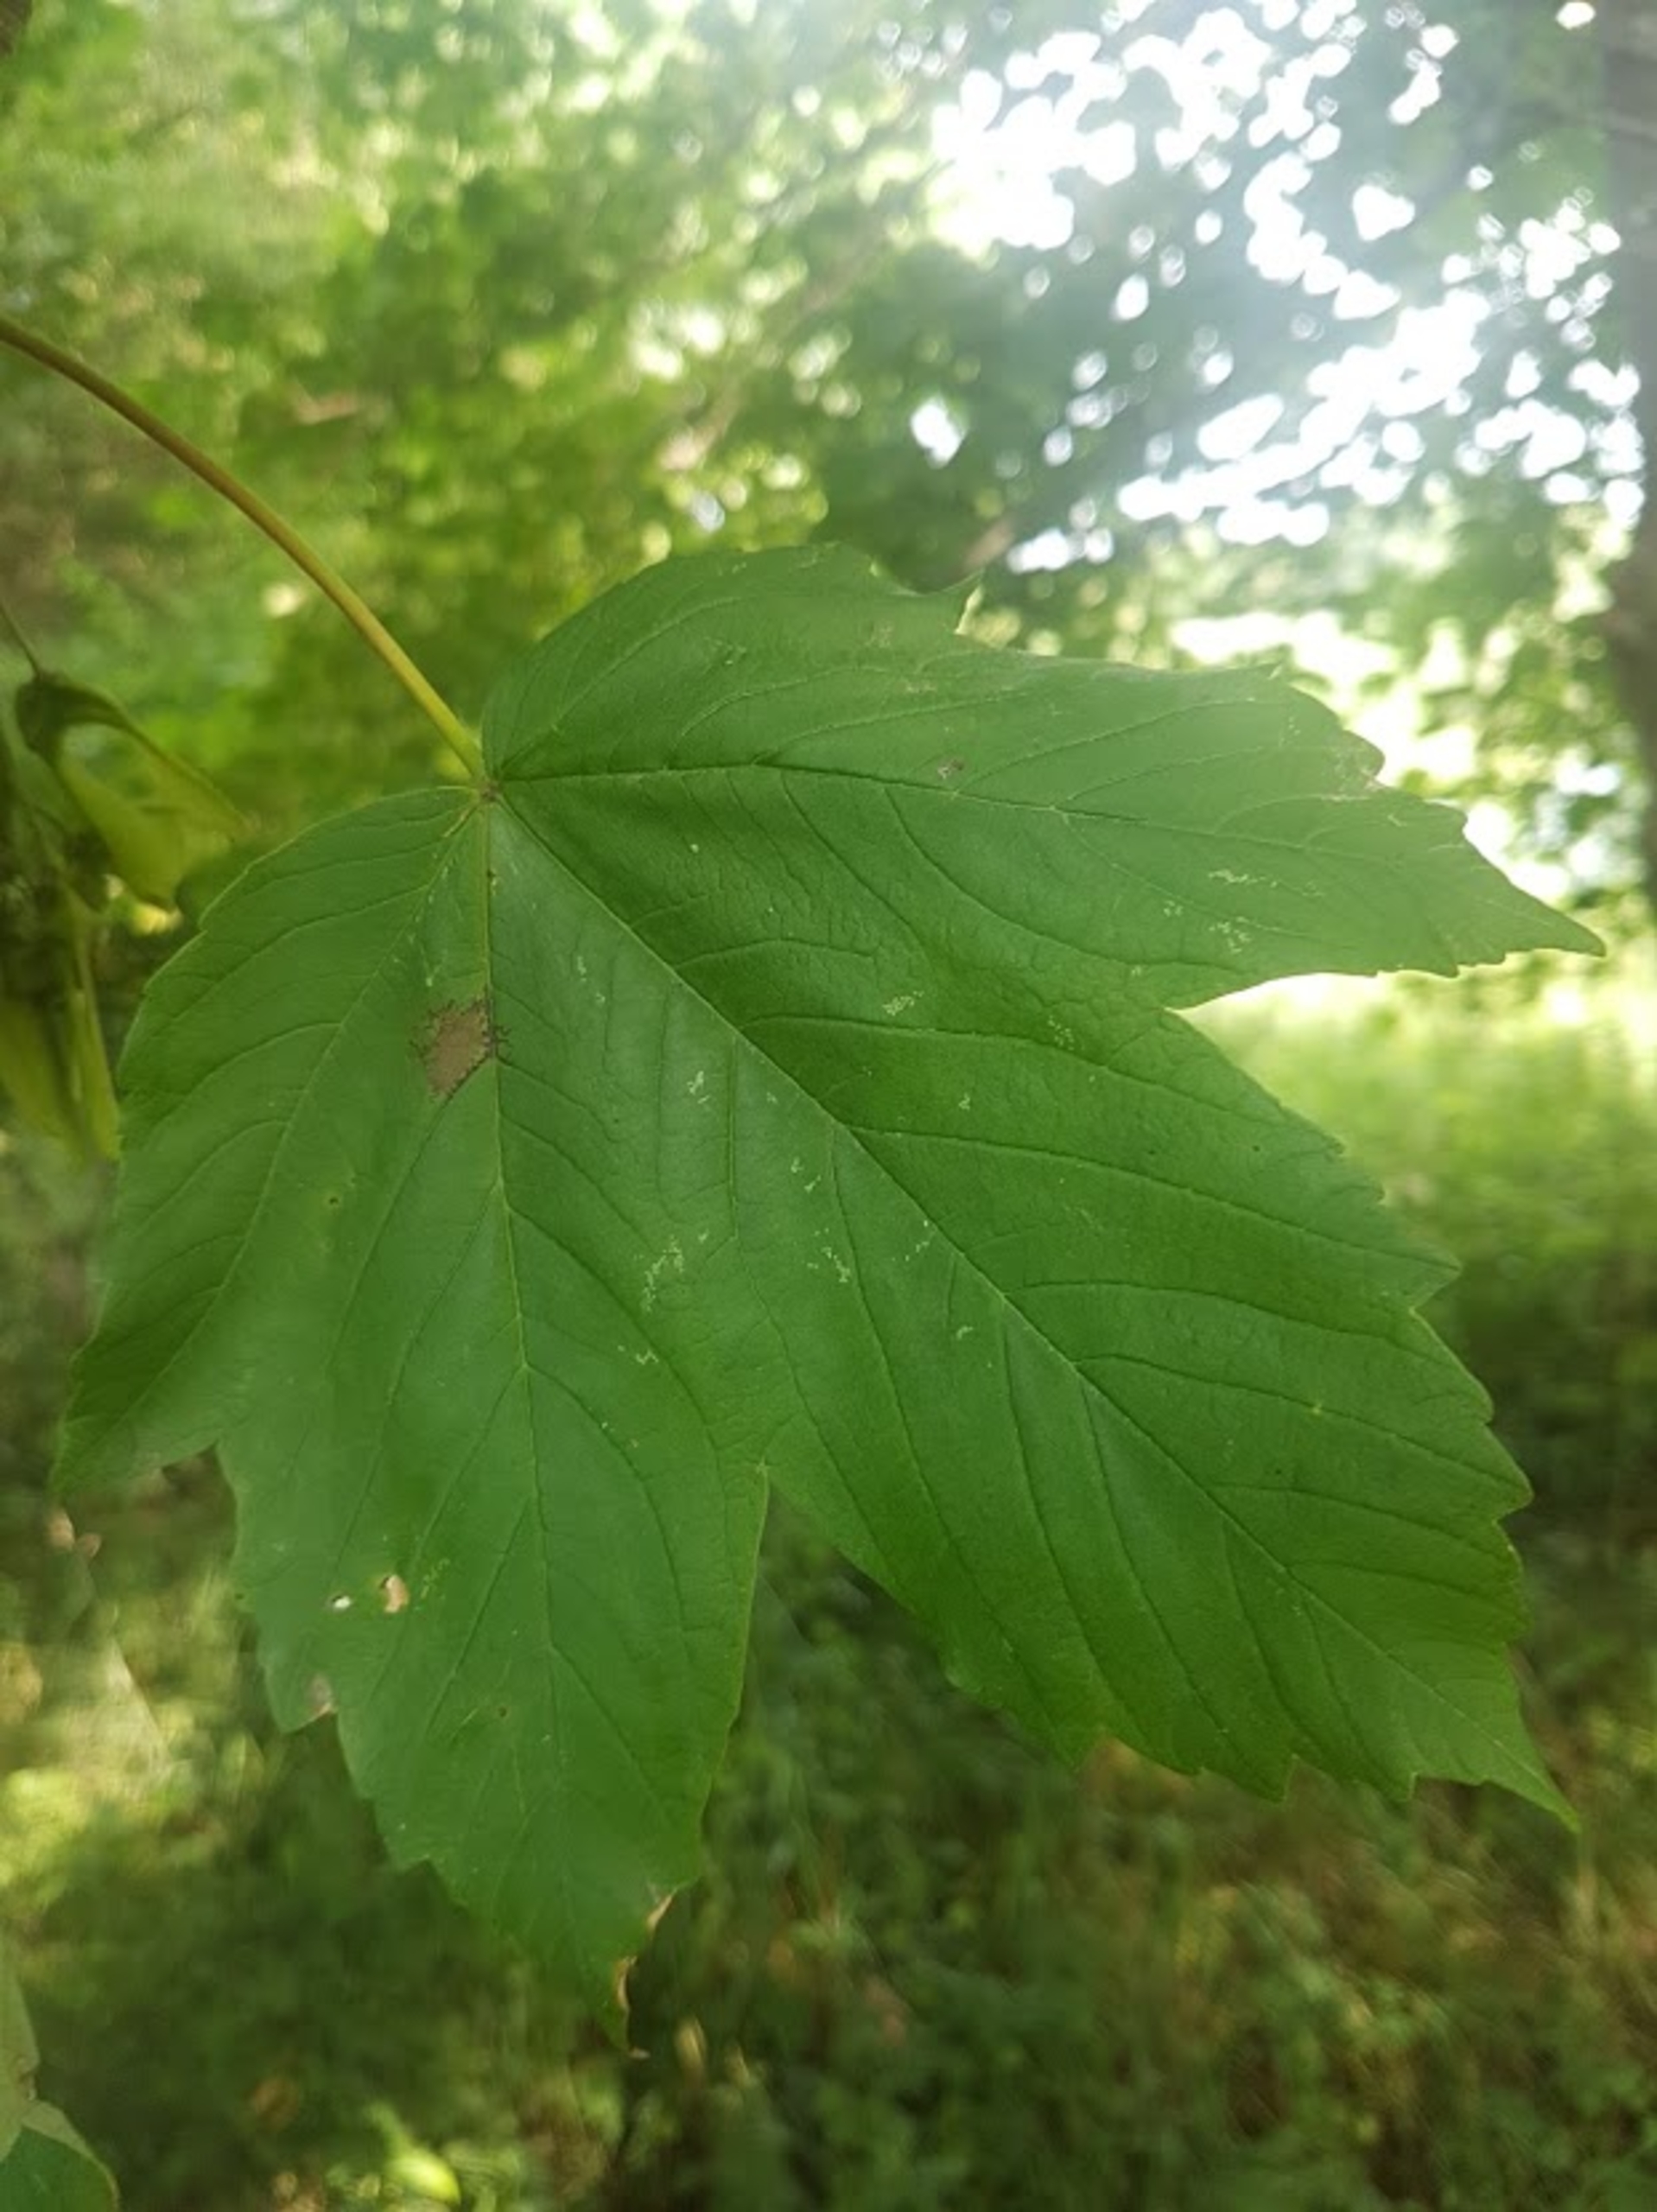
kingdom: Plantae
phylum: Tracheophyta
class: Magnoliopsida
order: Sapindales
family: Sapindaceae
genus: Acer
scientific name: Acer pseudoplatanus
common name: Ahorn
